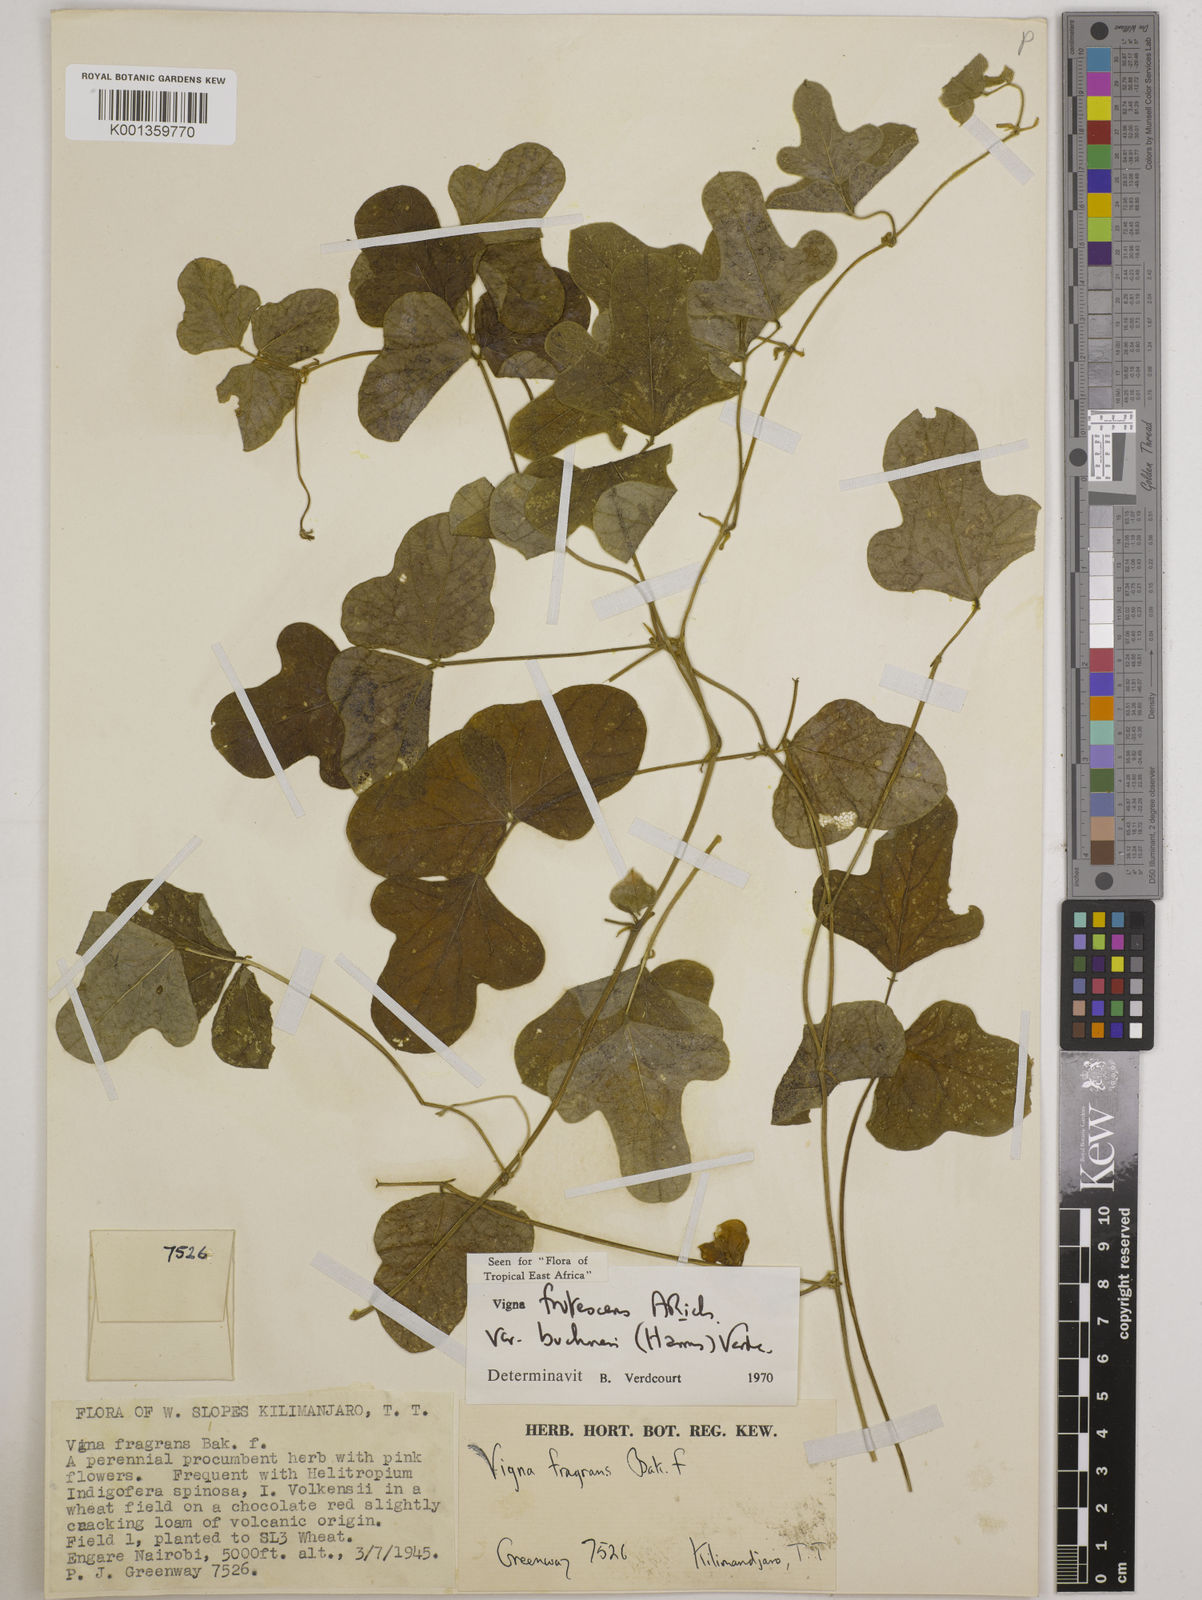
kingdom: Plantae
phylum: Tracheophyta
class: Magnoliopsida
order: Fabales
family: Fabaceae
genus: Vigna
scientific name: Vigna
